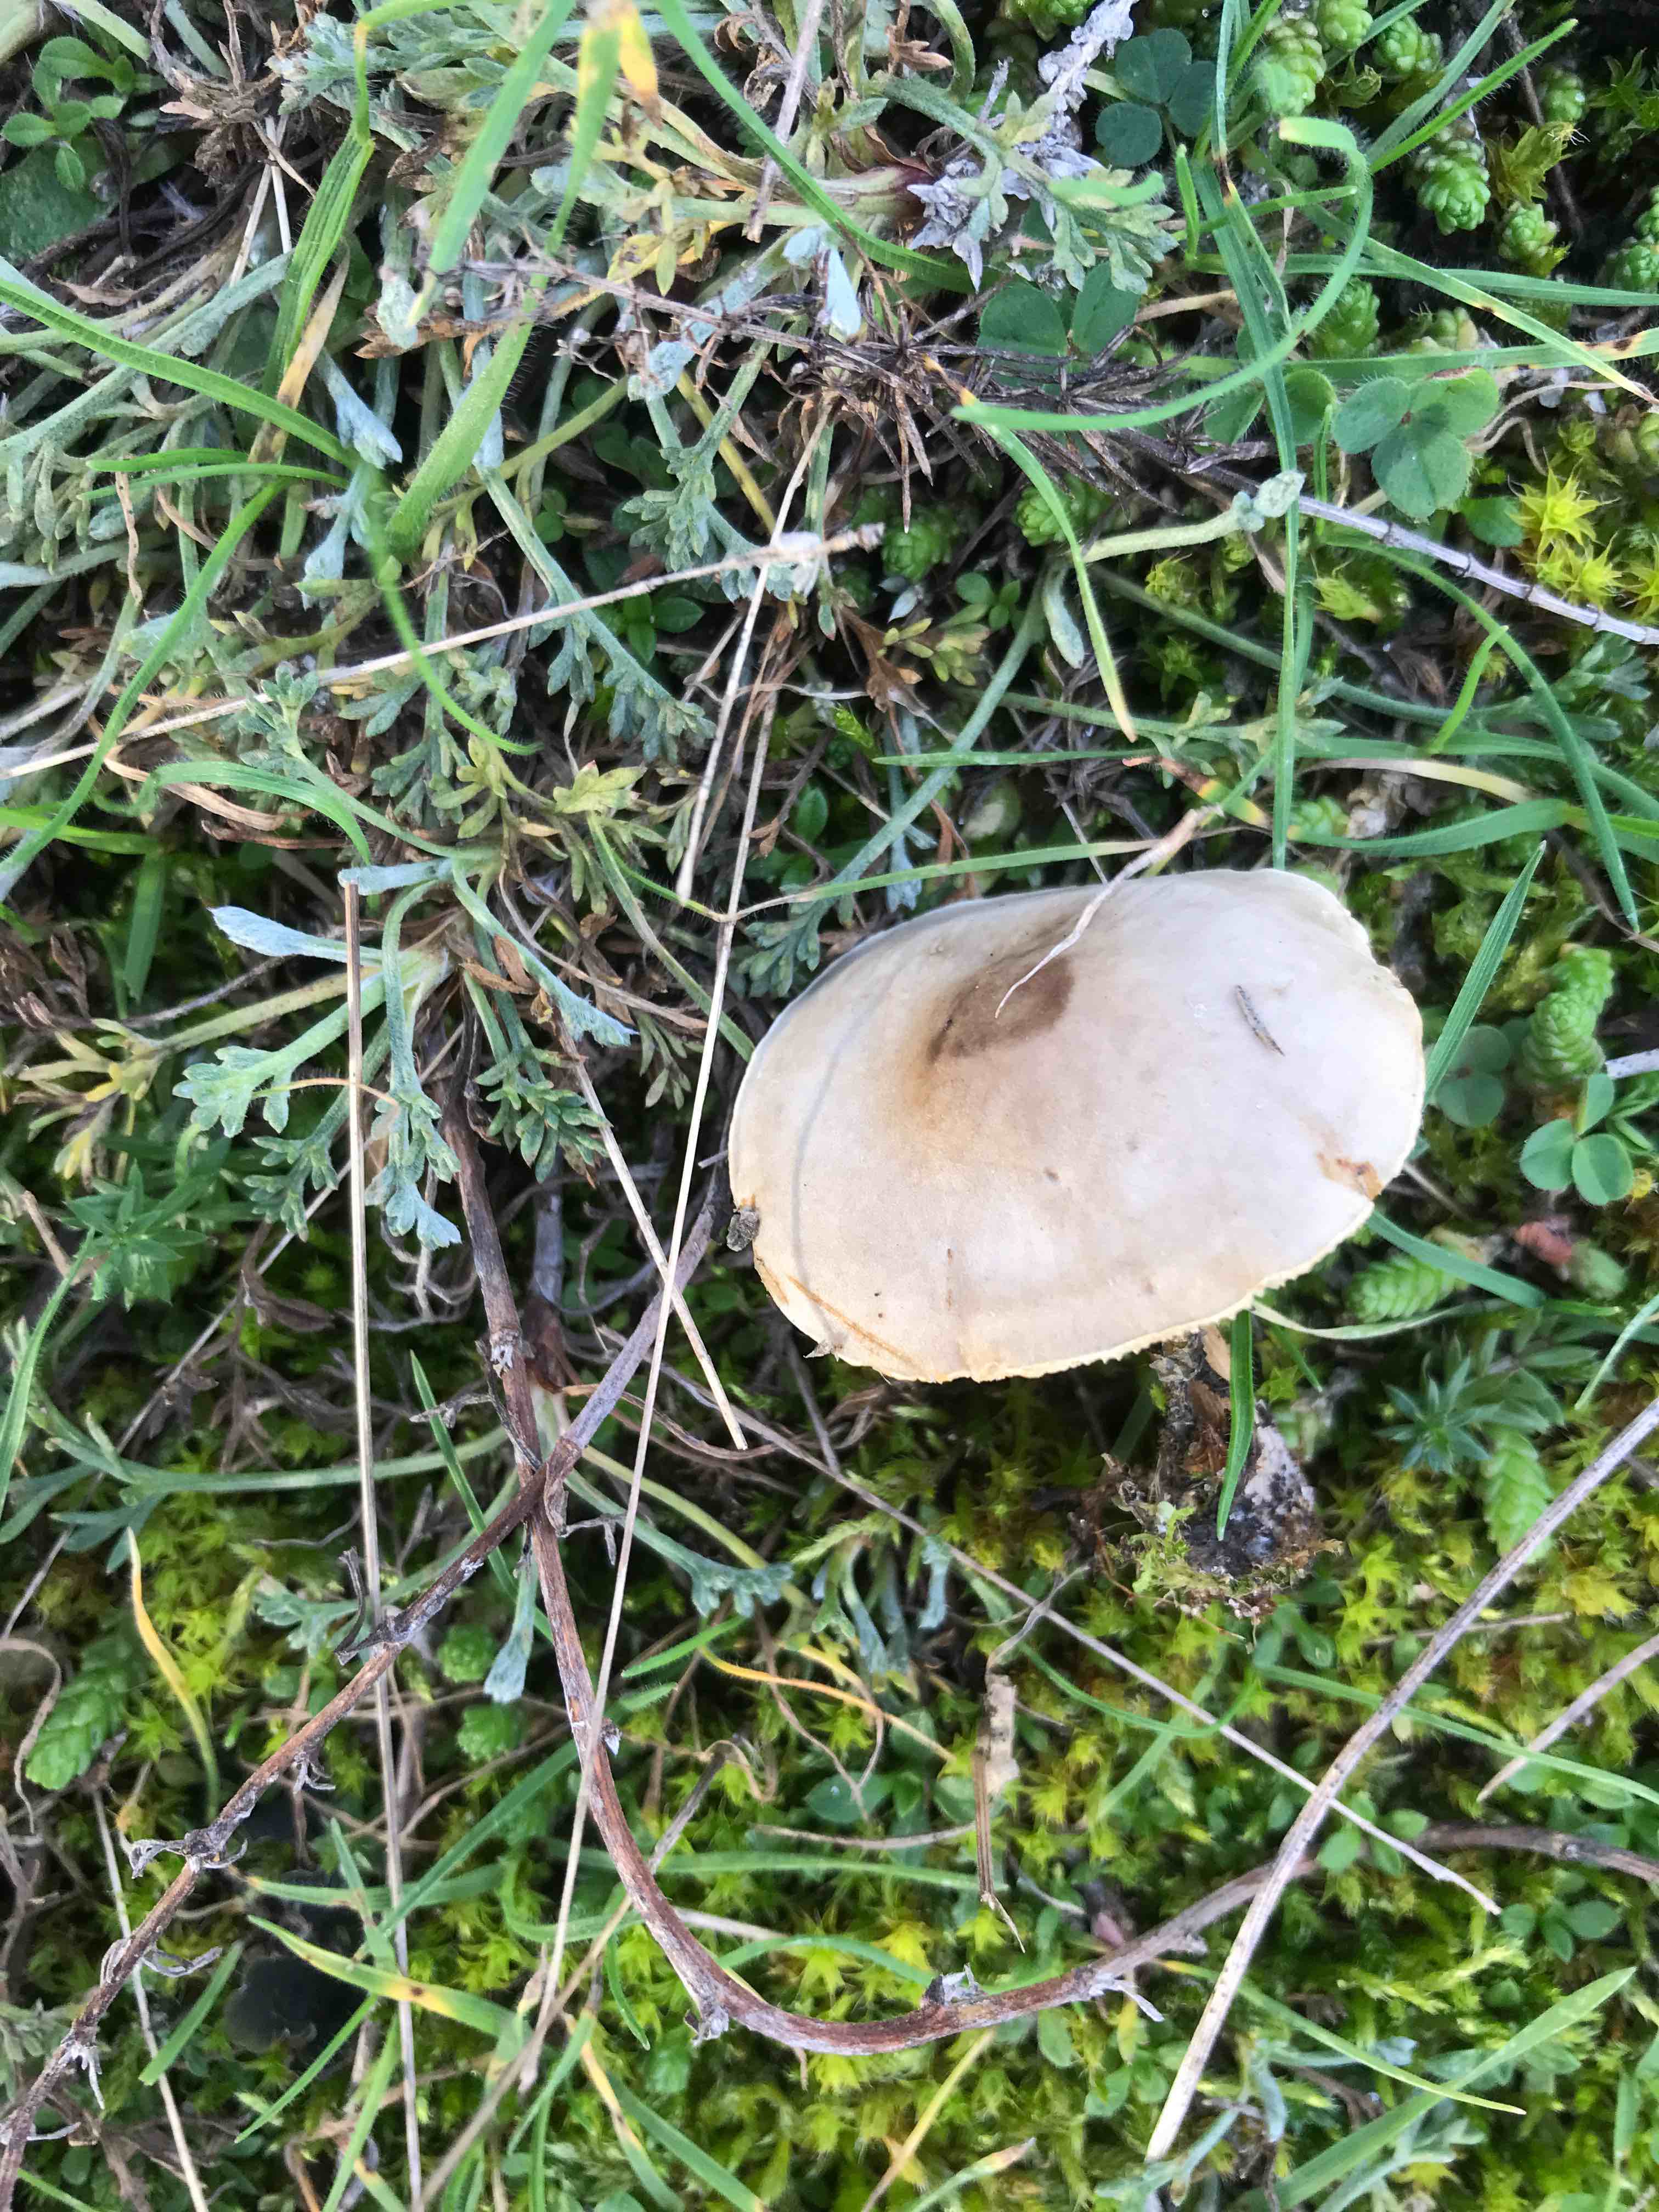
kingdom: Fungi
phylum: Basidiomycota
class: Agaricomycetes
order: Agaricales
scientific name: Agaricales
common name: champignonordenen
